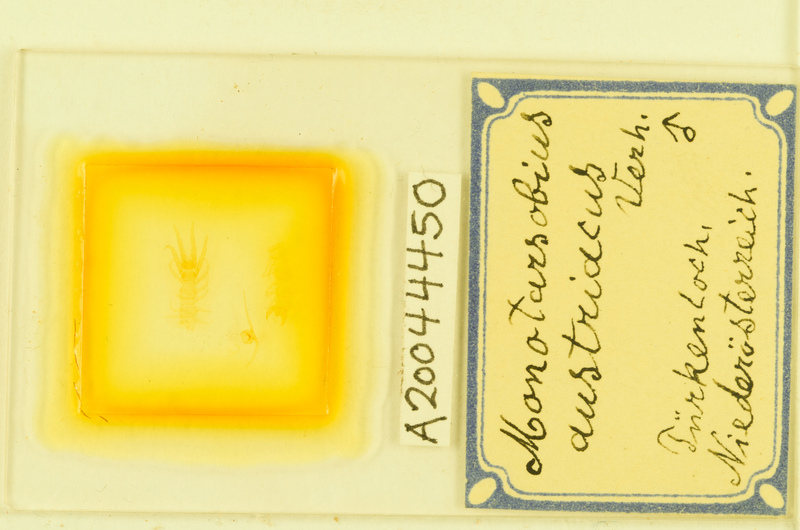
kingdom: Animalia
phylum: Arthropoda
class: Chilopoda
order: Lithobiomorpha
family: Lithobiidae
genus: Lithobius
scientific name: Lithobius austriacus
